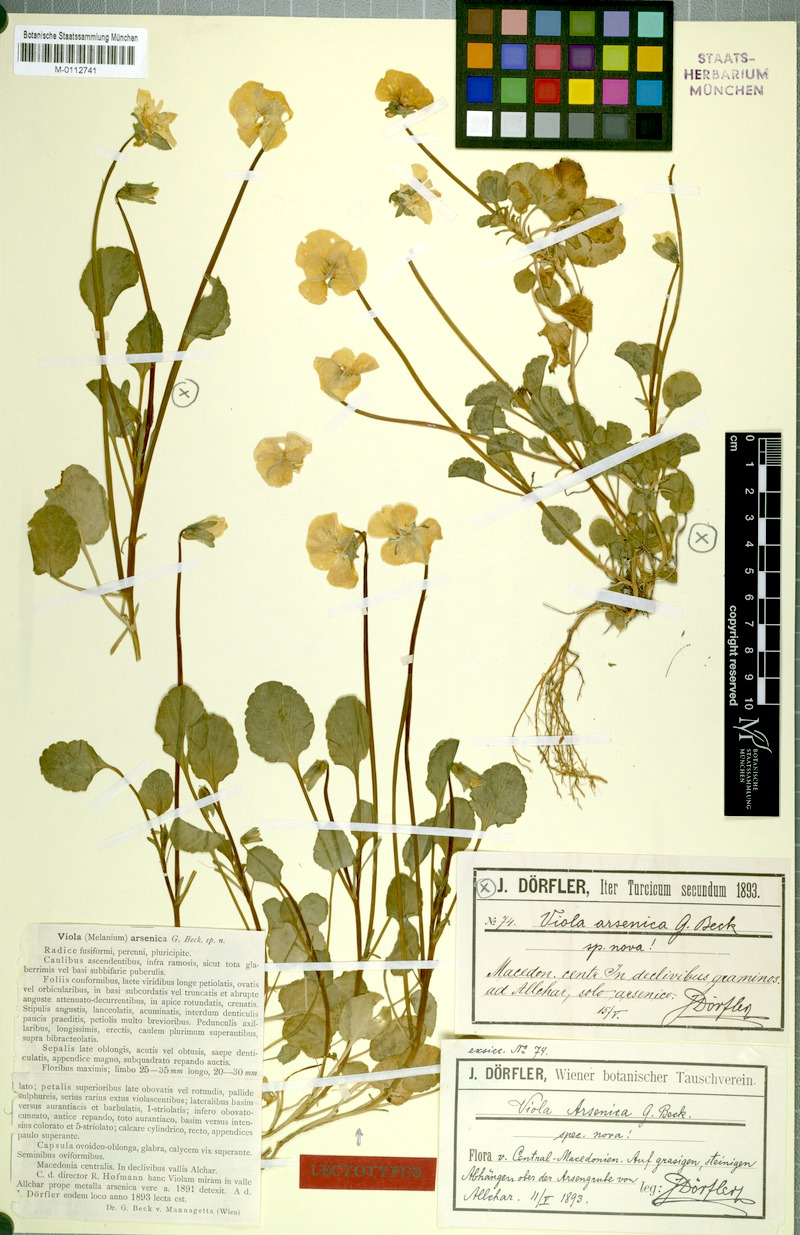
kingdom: Plantae
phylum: Tracheophyta
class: Magnoliopsida
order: Malpighiales
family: Violaceae
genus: Viola
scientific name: Viola arsenica
